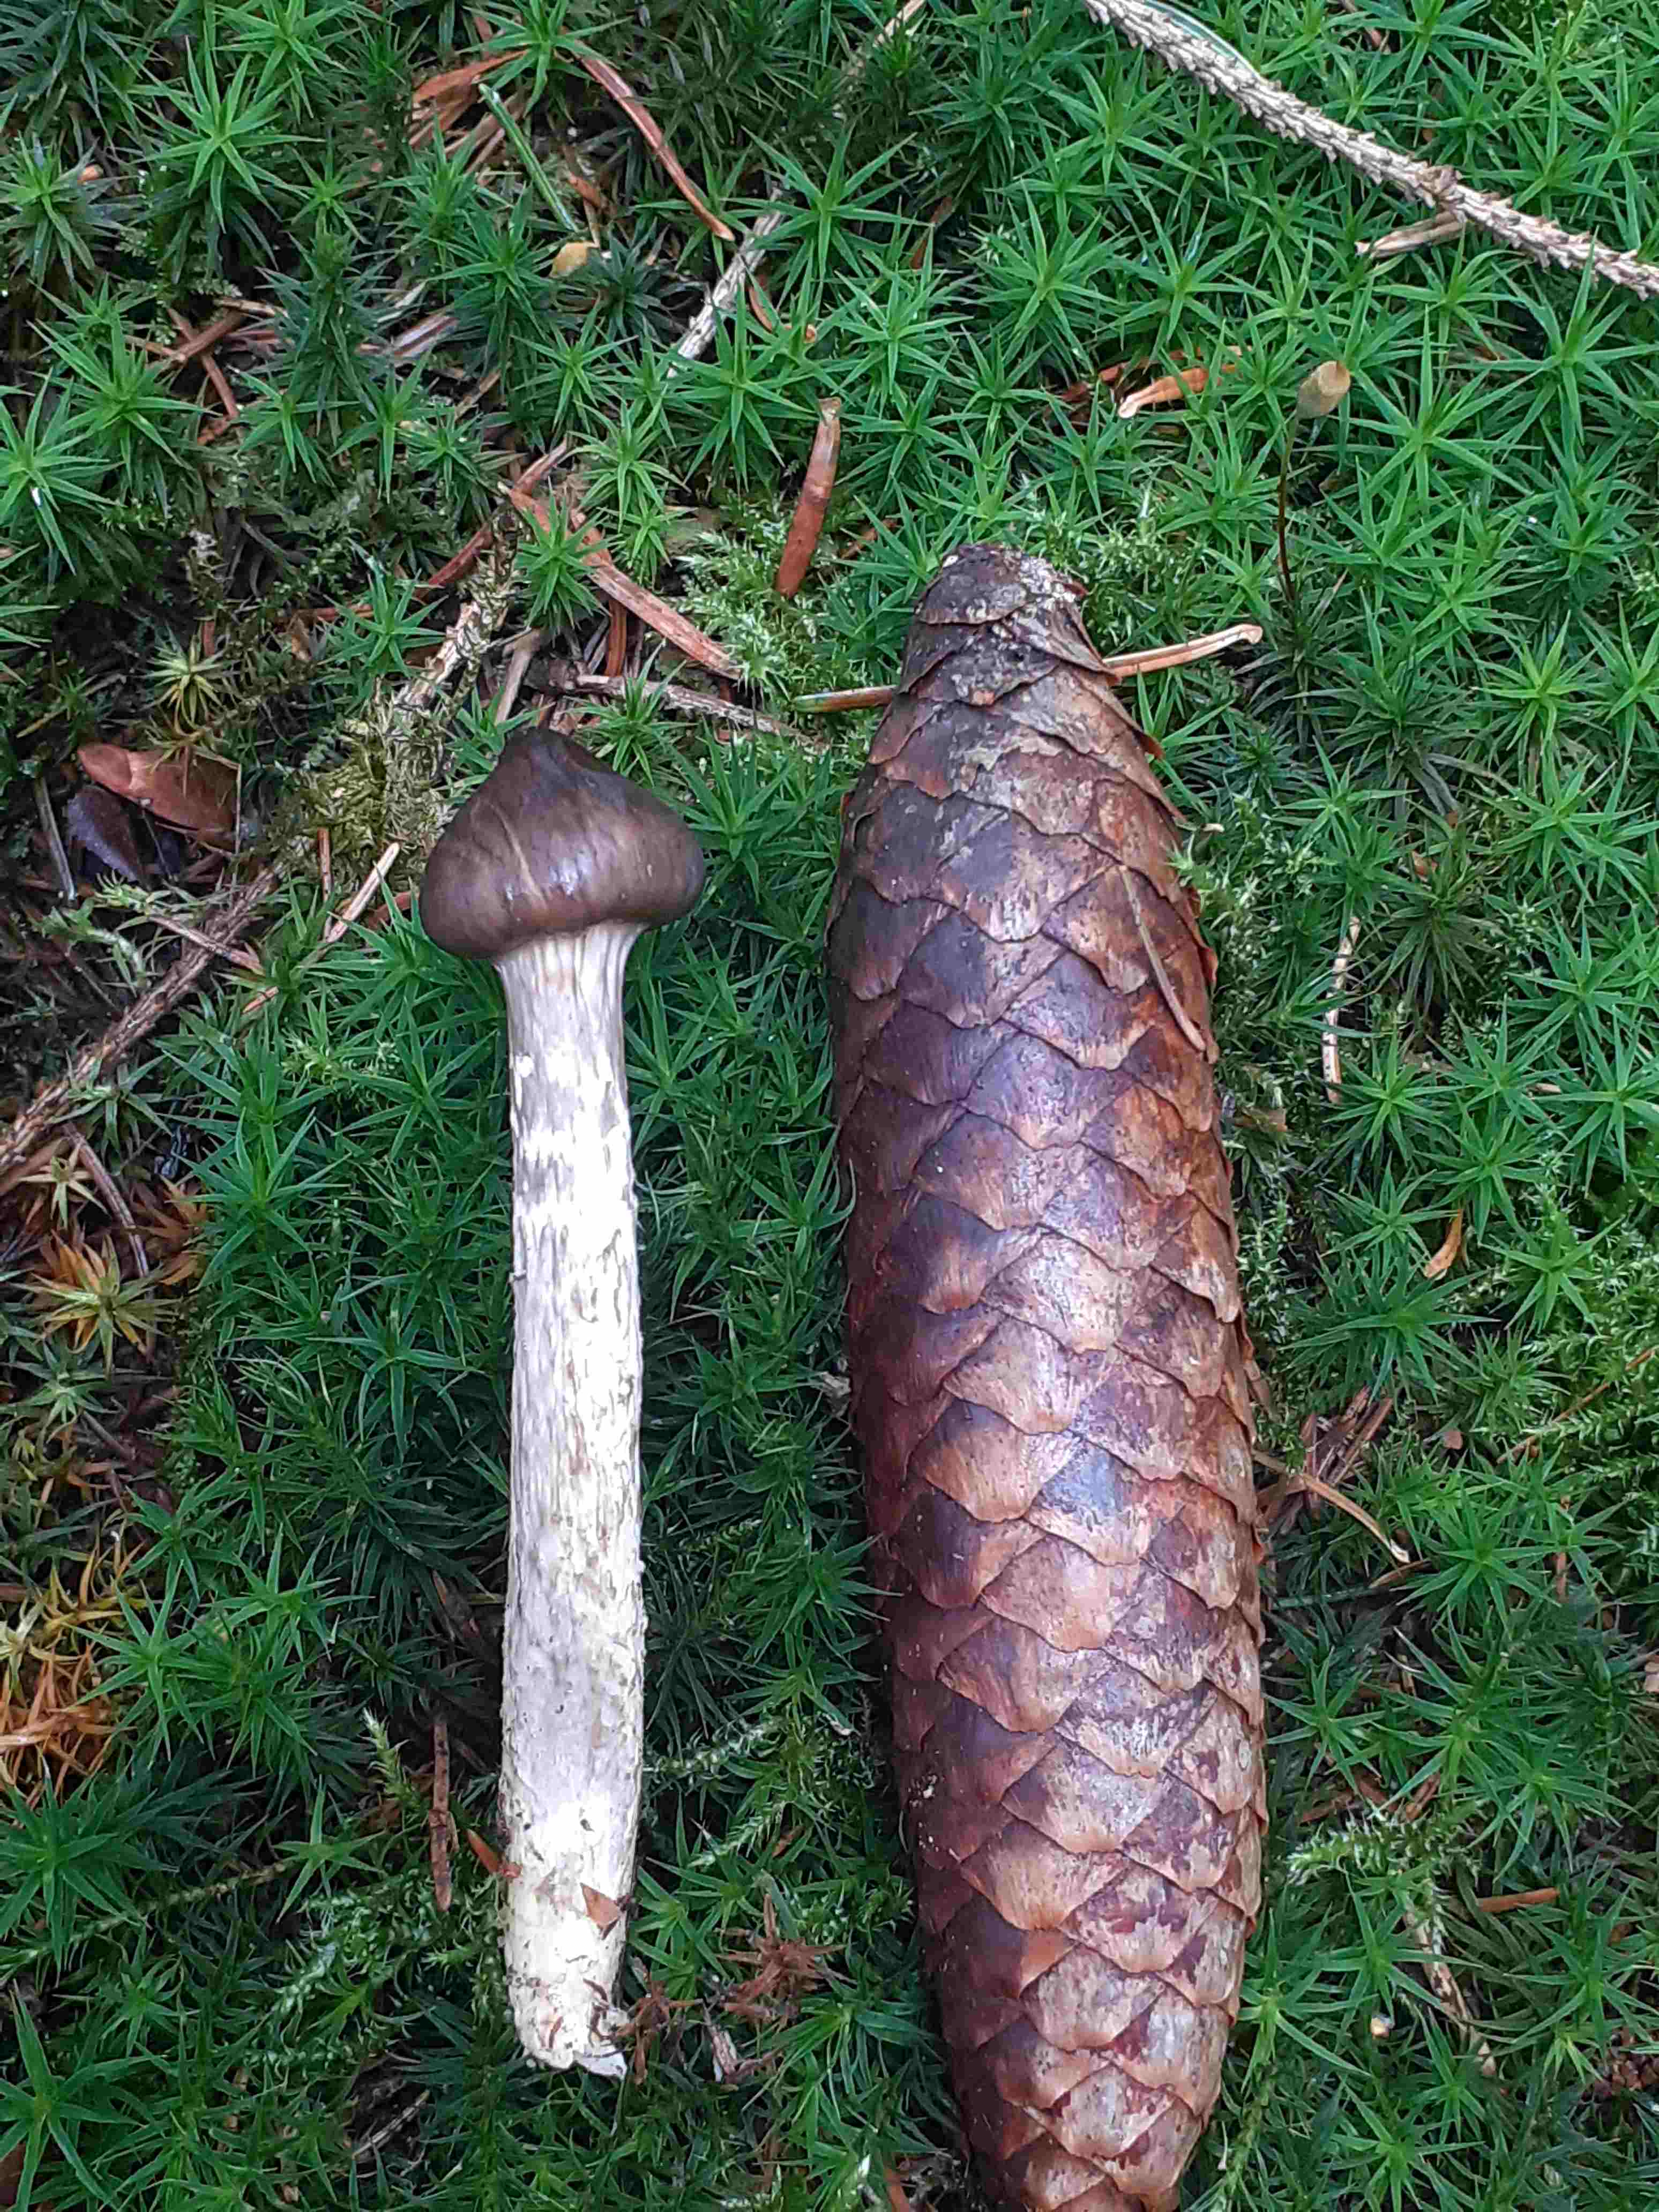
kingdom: Fungi
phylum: Basidiomycota
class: Agaricomycetes
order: Agaricales
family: Hygrophoraceae
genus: Hygrophorus
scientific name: Hygrophorus olivaceoalbus
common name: hvidbrun sneglehat
